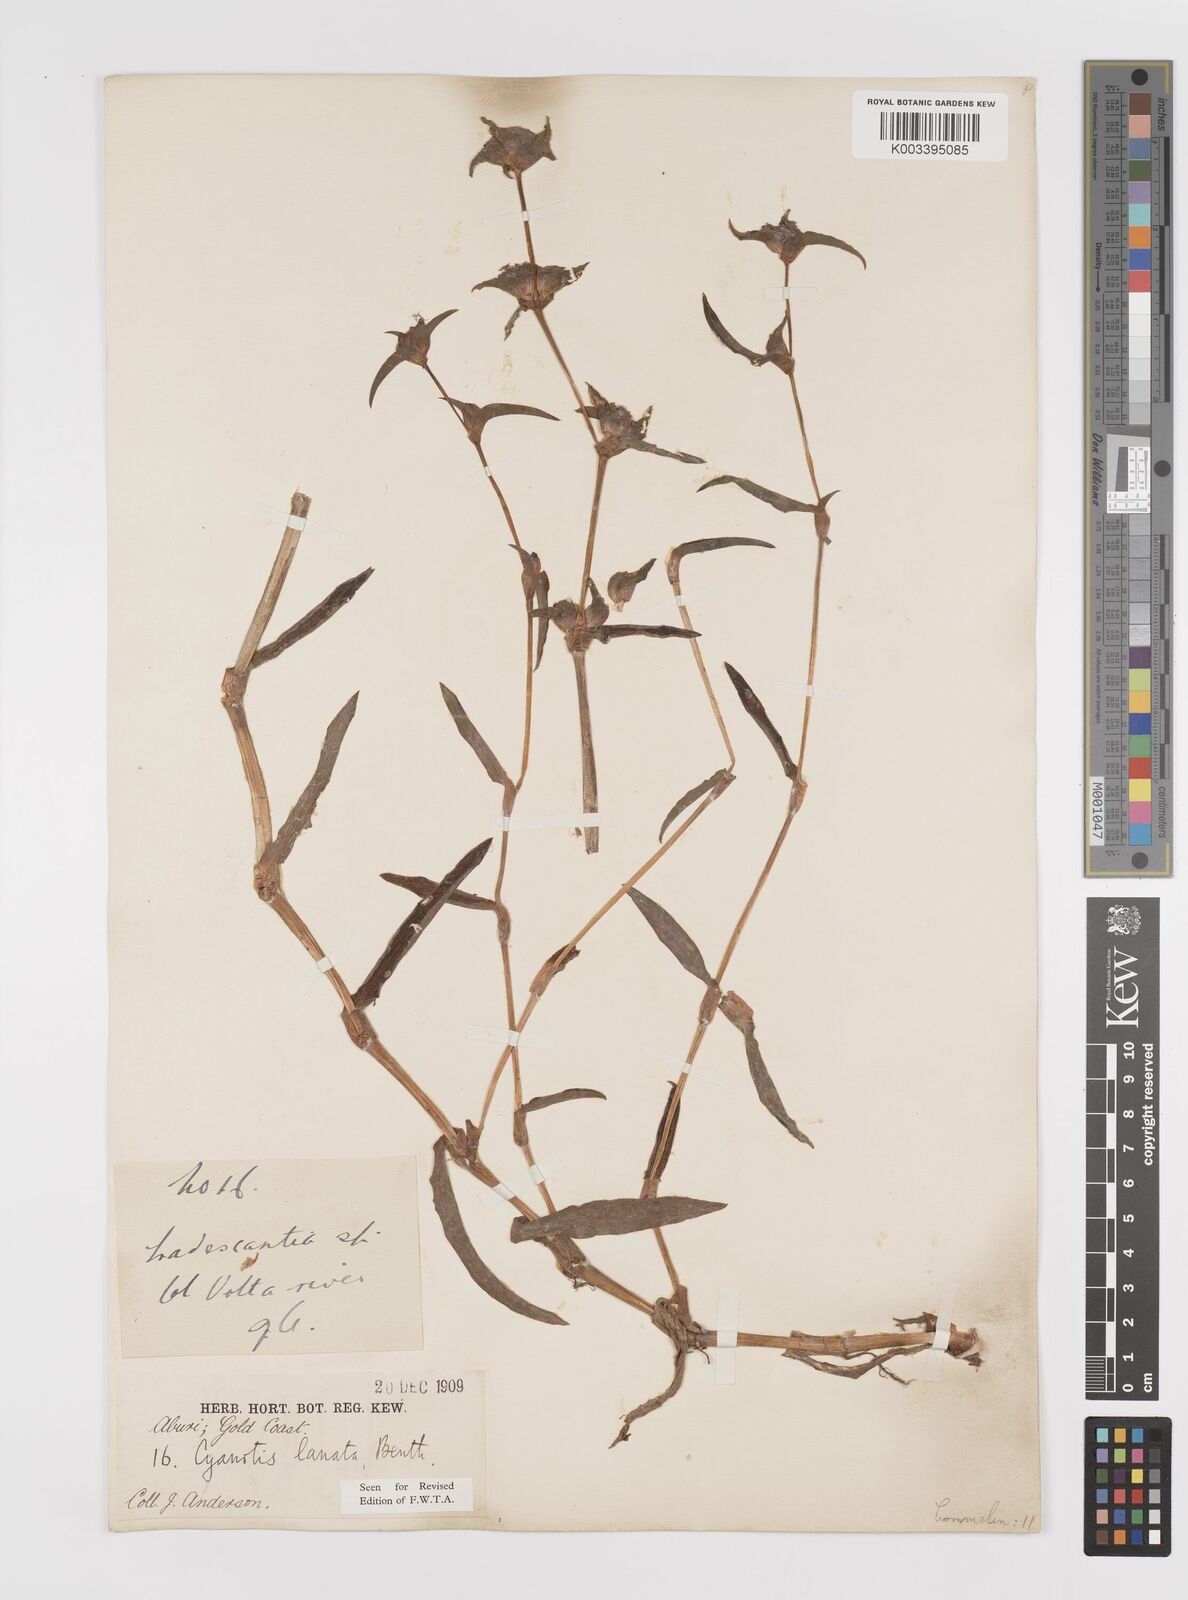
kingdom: Plantae
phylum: Tracheophyta
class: Liliopsida
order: Commelinales
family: Commelinaceae
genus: Cyanotis
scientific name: Cyanotis lanata
